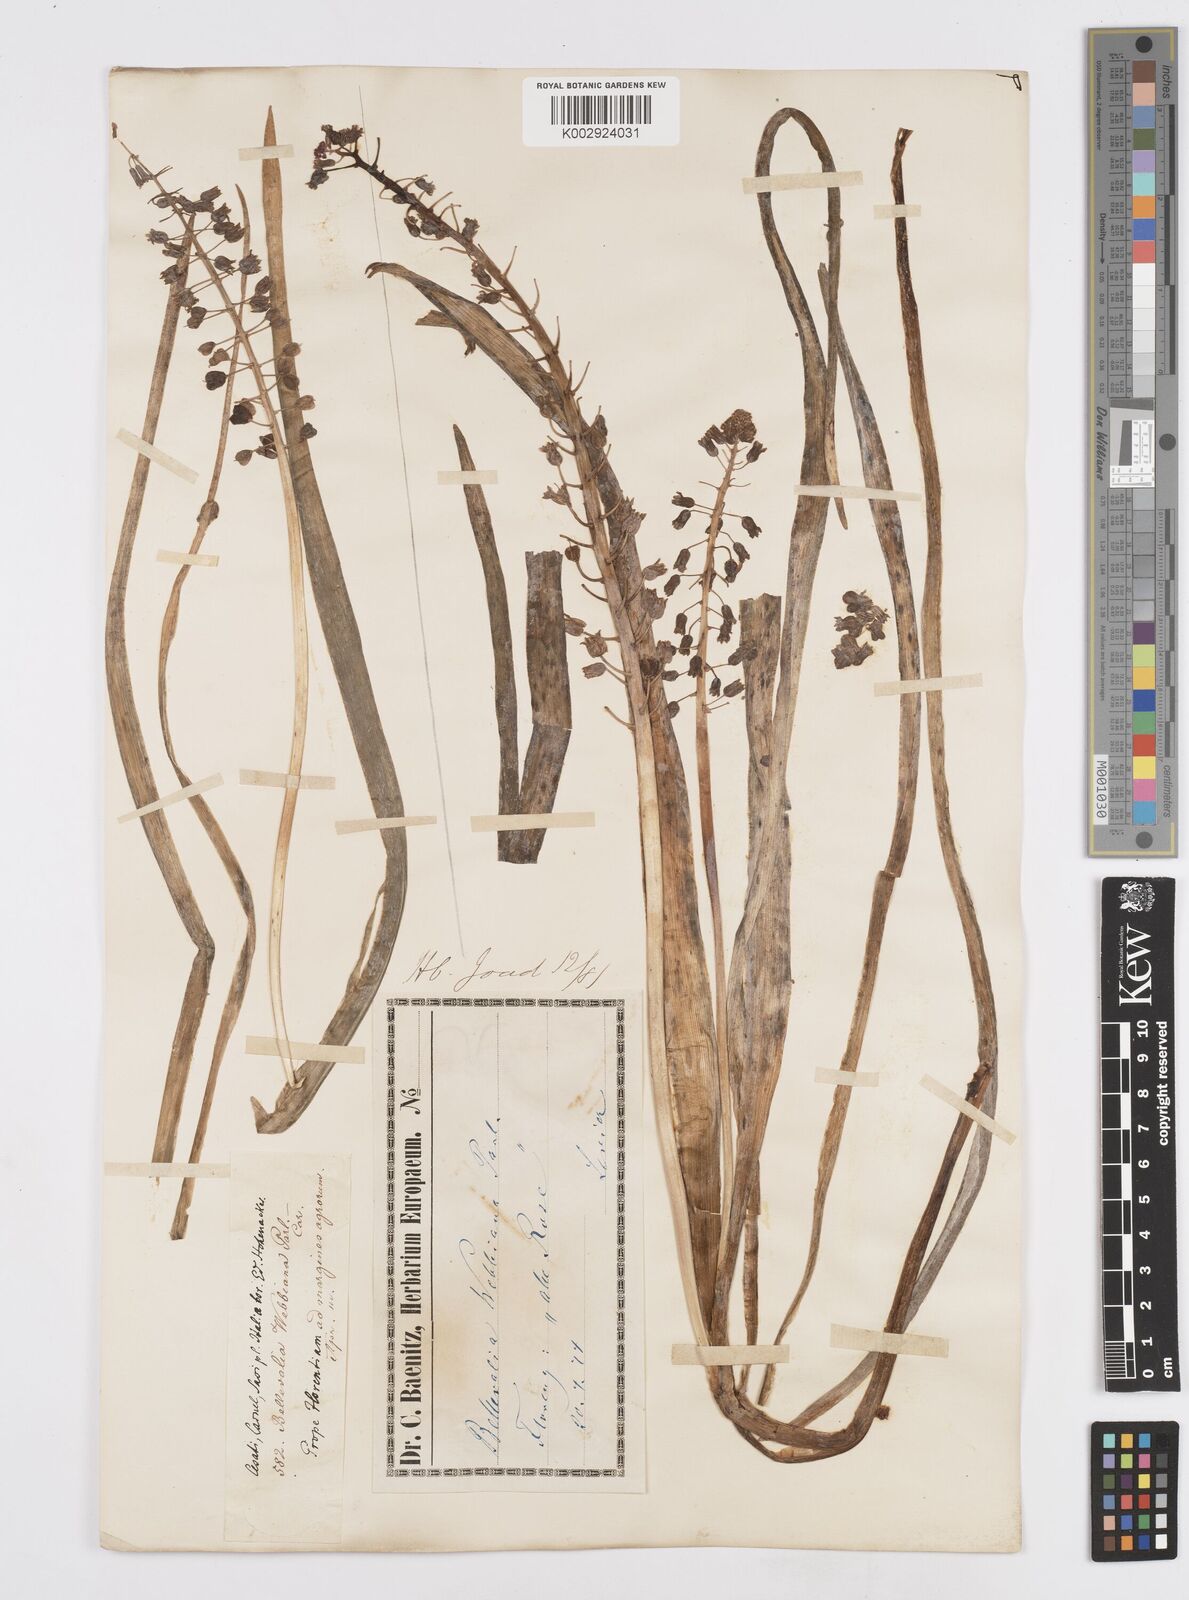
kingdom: Plantae
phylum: Tracheophyta
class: Liliopsida
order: Asparagales
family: Asparagaceae
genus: Bellevalia
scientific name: Bellevalia dubia
